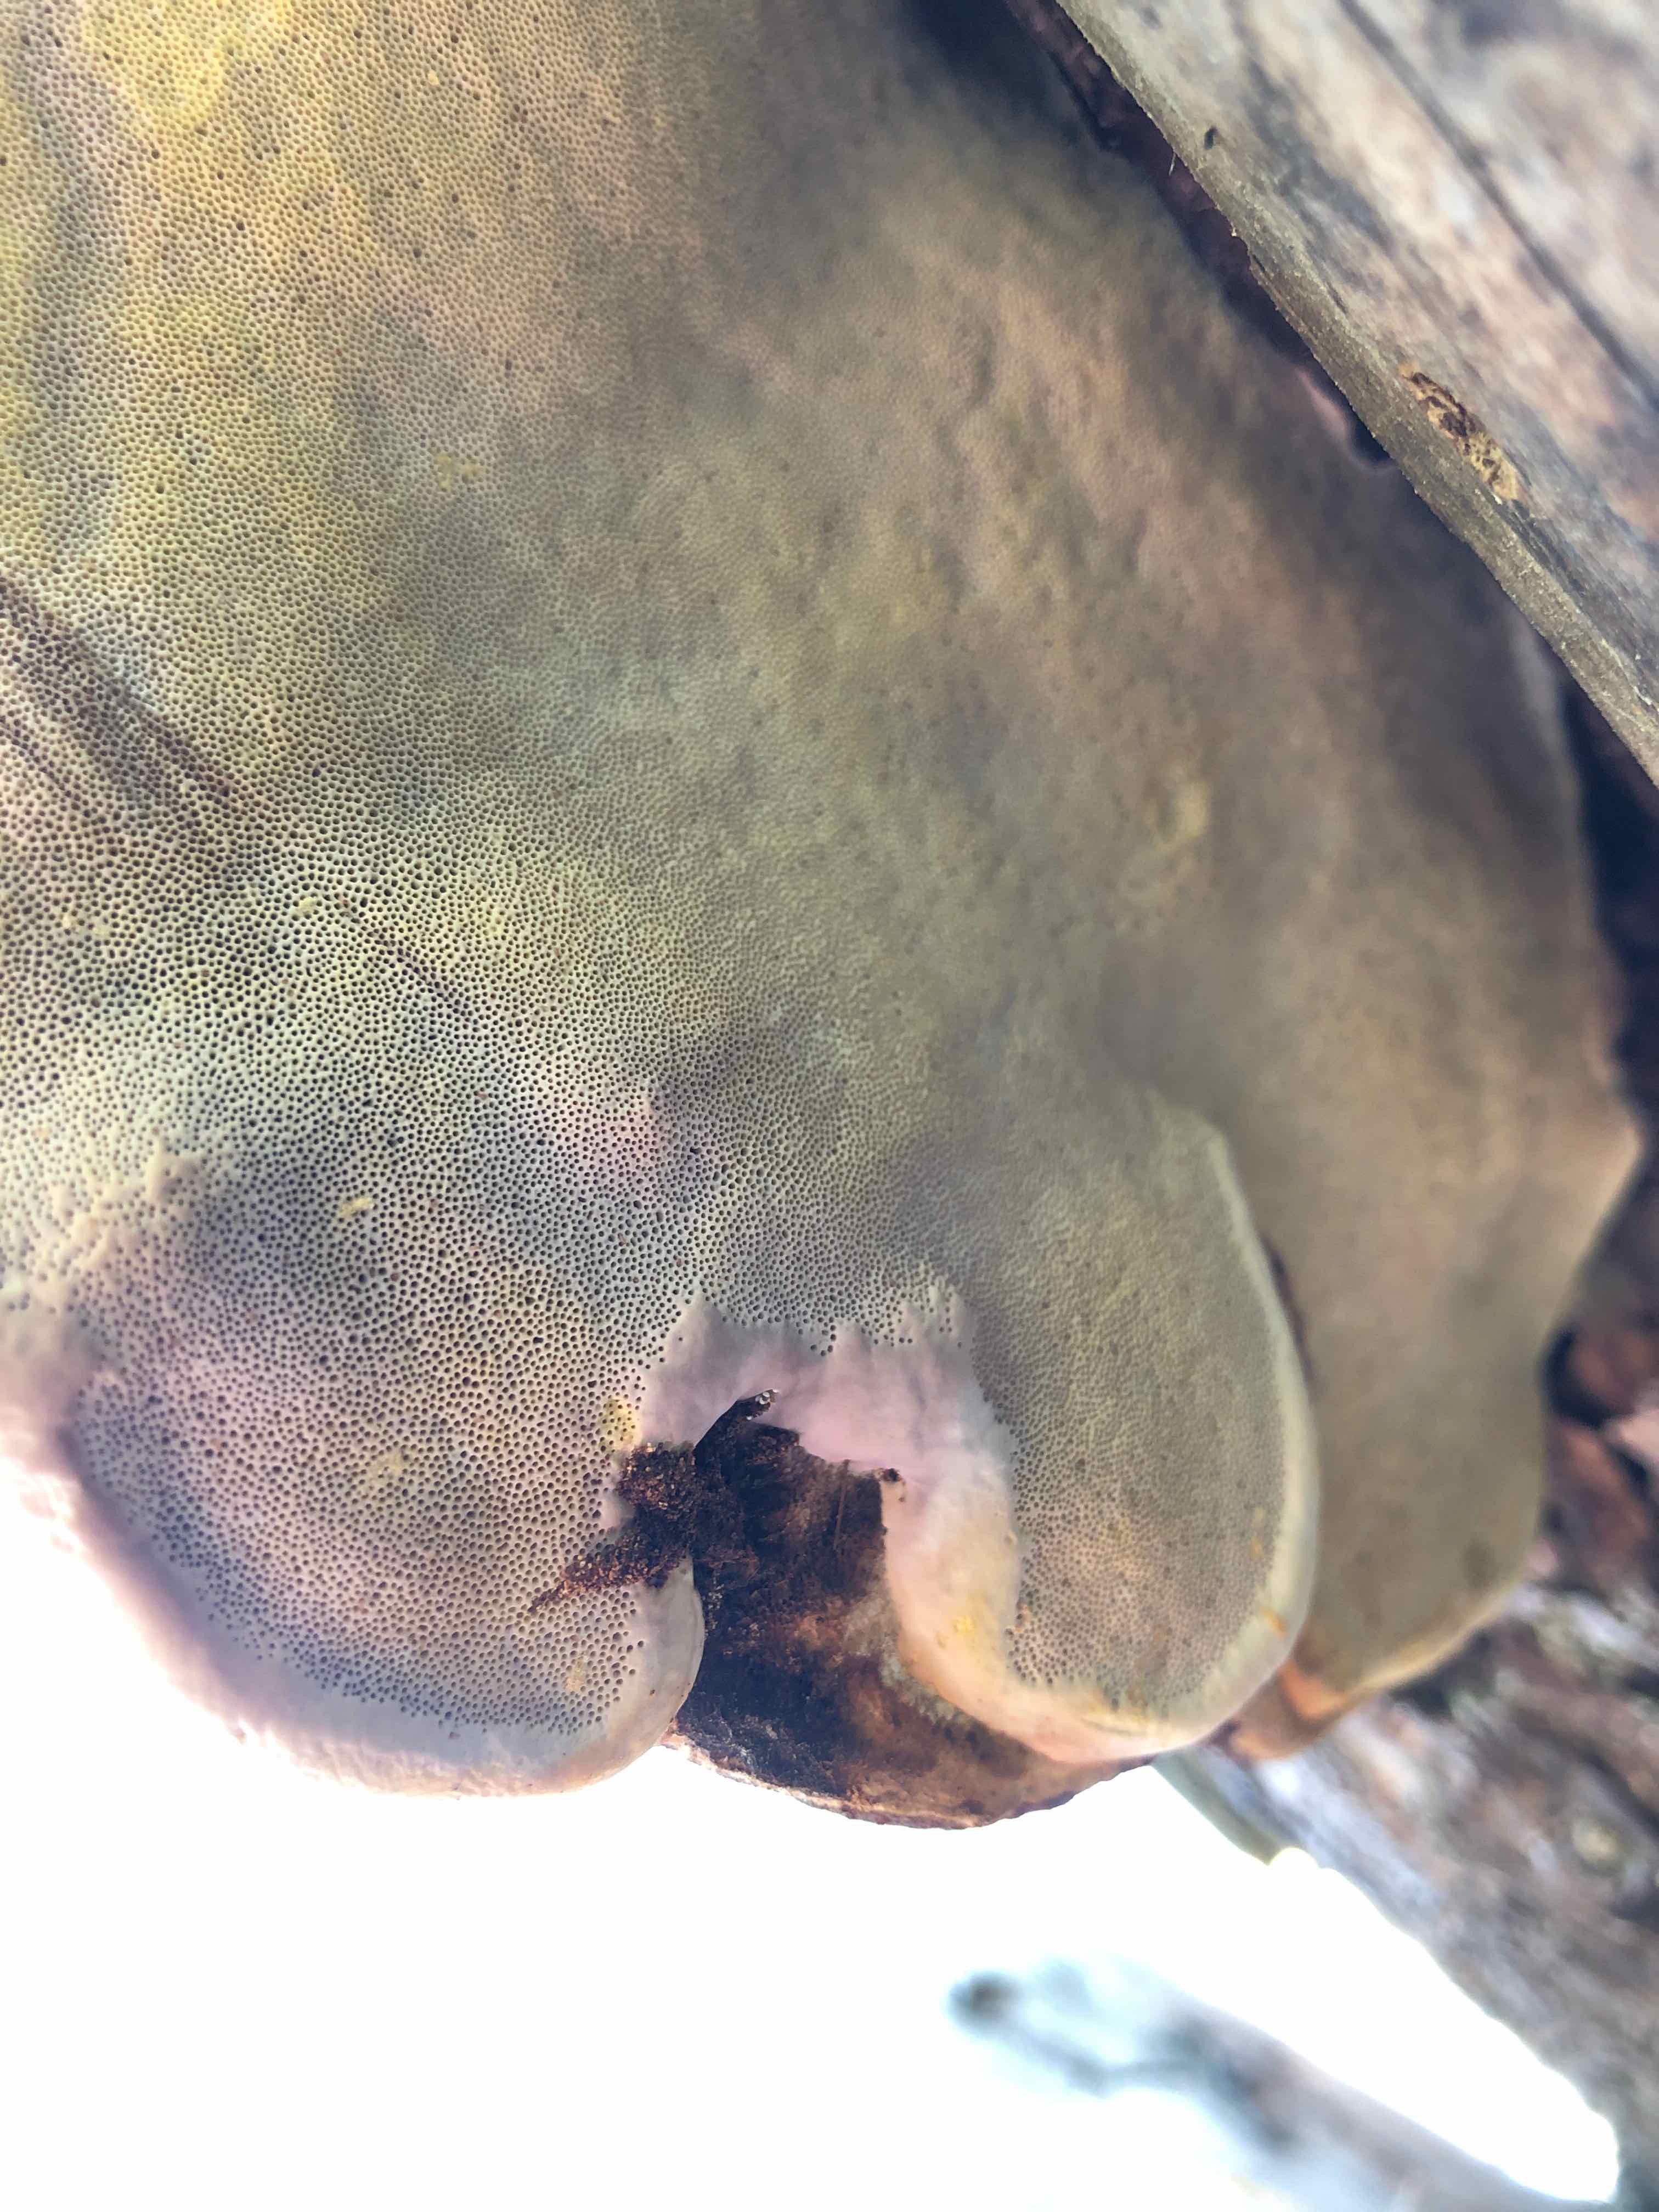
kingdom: Fungi
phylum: Basidiomycota
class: Agaricomycetes
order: Polyporales
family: Fomitopsidaceae
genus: Fomitopsis
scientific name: Fomitopsis pinicola
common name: randbæltet hovporesvamp
